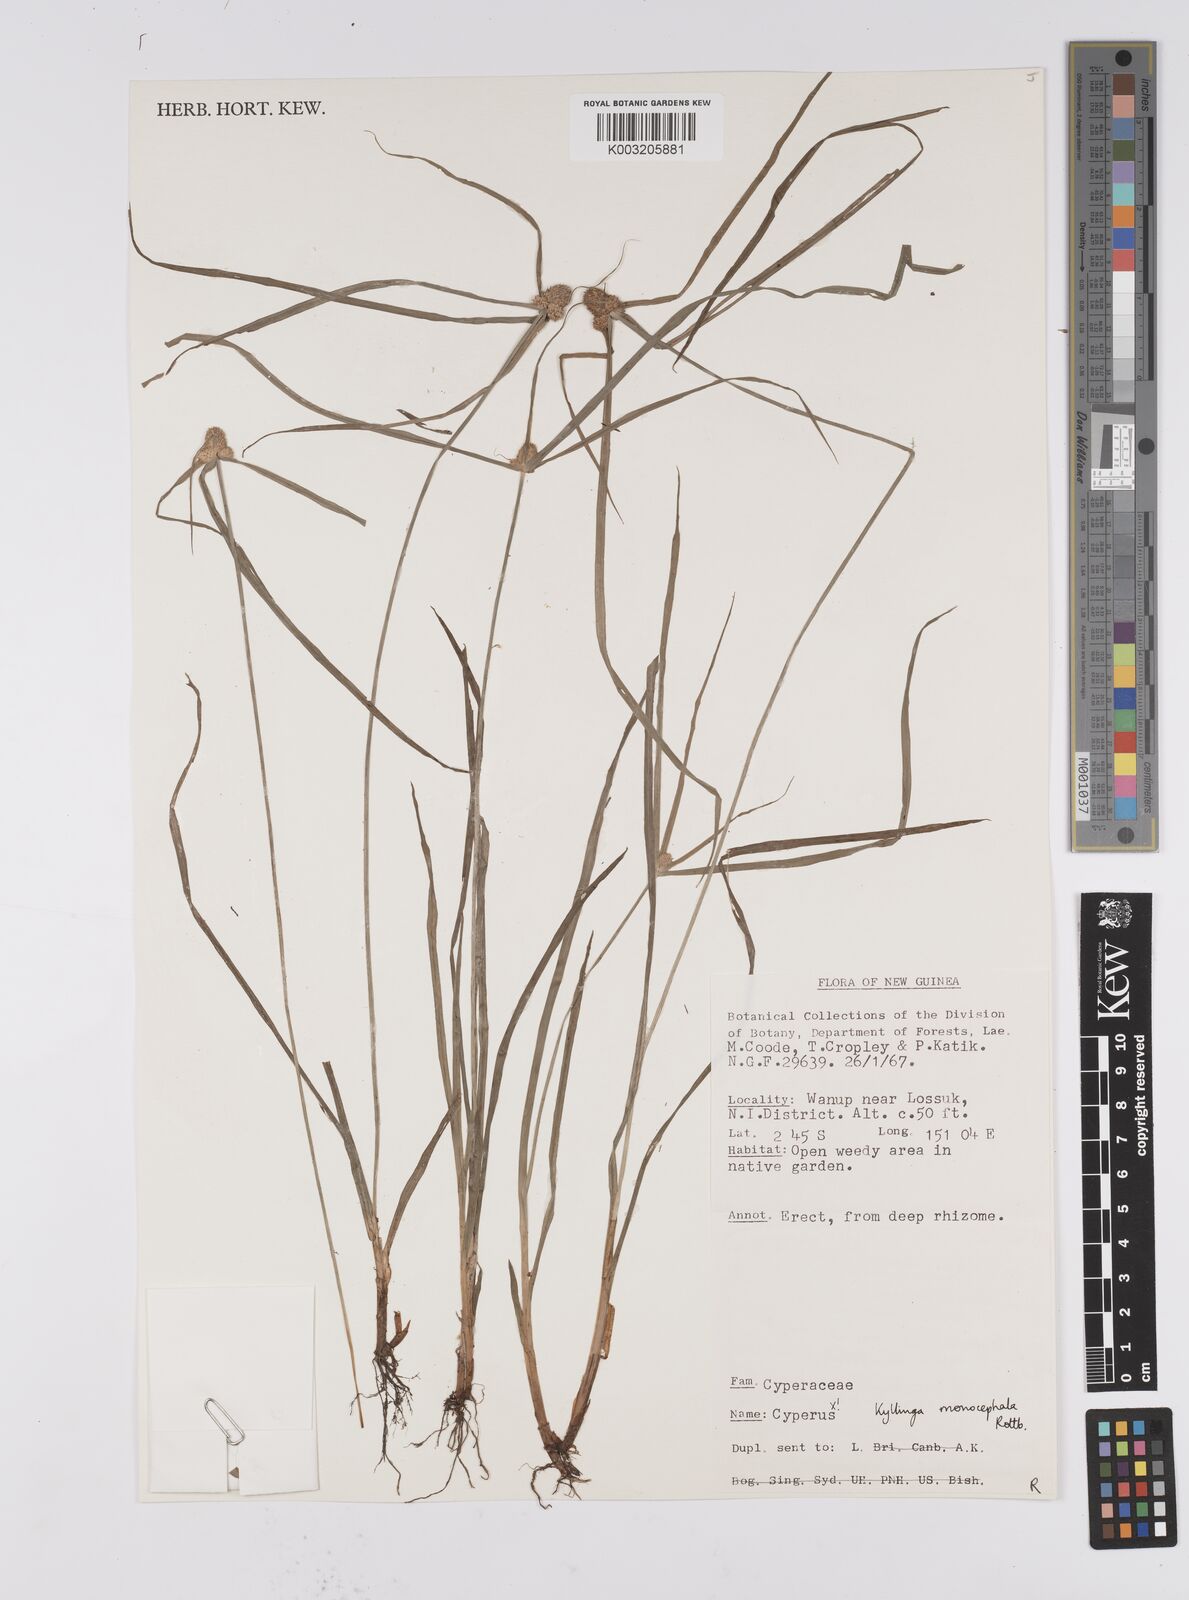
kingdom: Plantae
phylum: Tracheophyta
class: Liliopsida
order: Poales
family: Cyperaceae
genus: Cyperus
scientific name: Cyperus nemoralis
